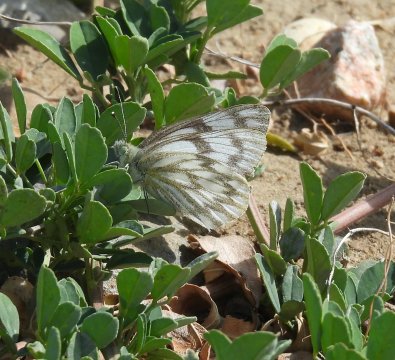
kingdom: Animalia
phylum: Arthropoda
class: Insecta
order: Lepidoptera
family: Pieridae
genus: Pontia
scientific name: Pontia occidentalis
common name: Western White
